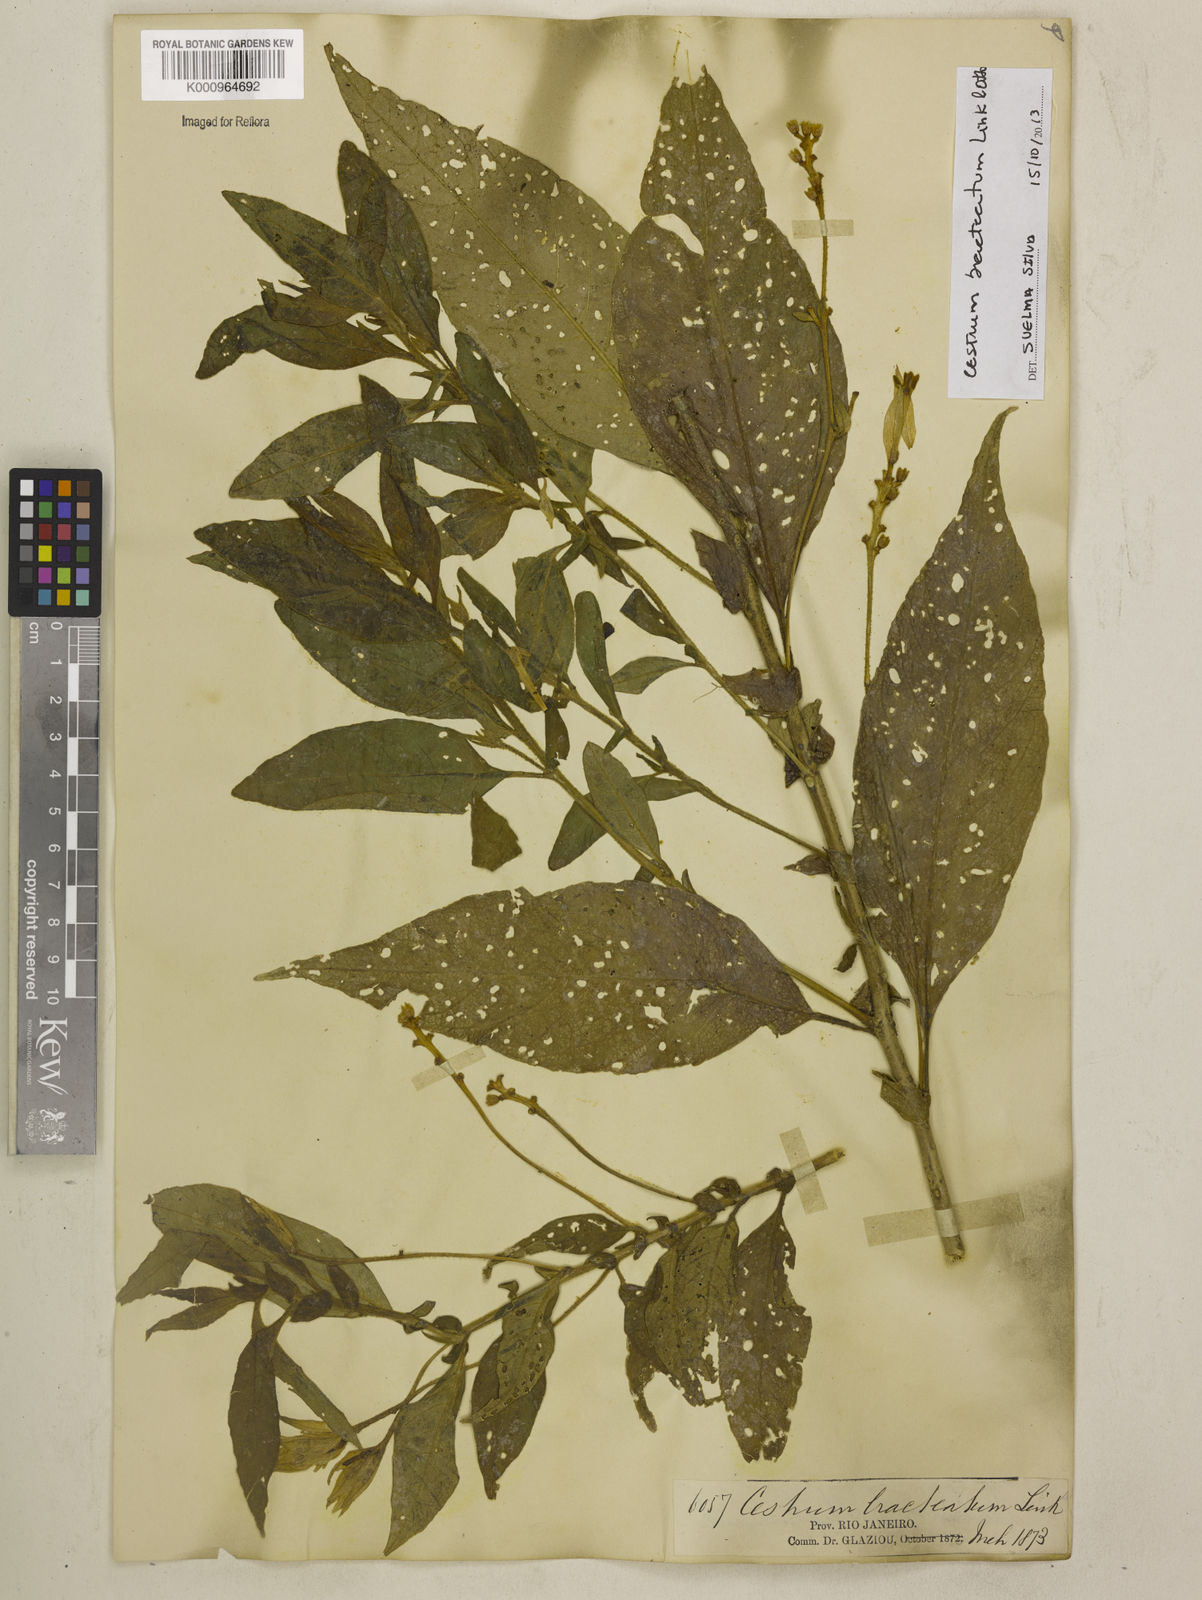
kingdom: Plantae
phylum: Tracheophyta
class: Magnoliopsida
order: Solanales
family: Solanaceae
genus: Cestrum
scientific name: Cestrum bracteatum
